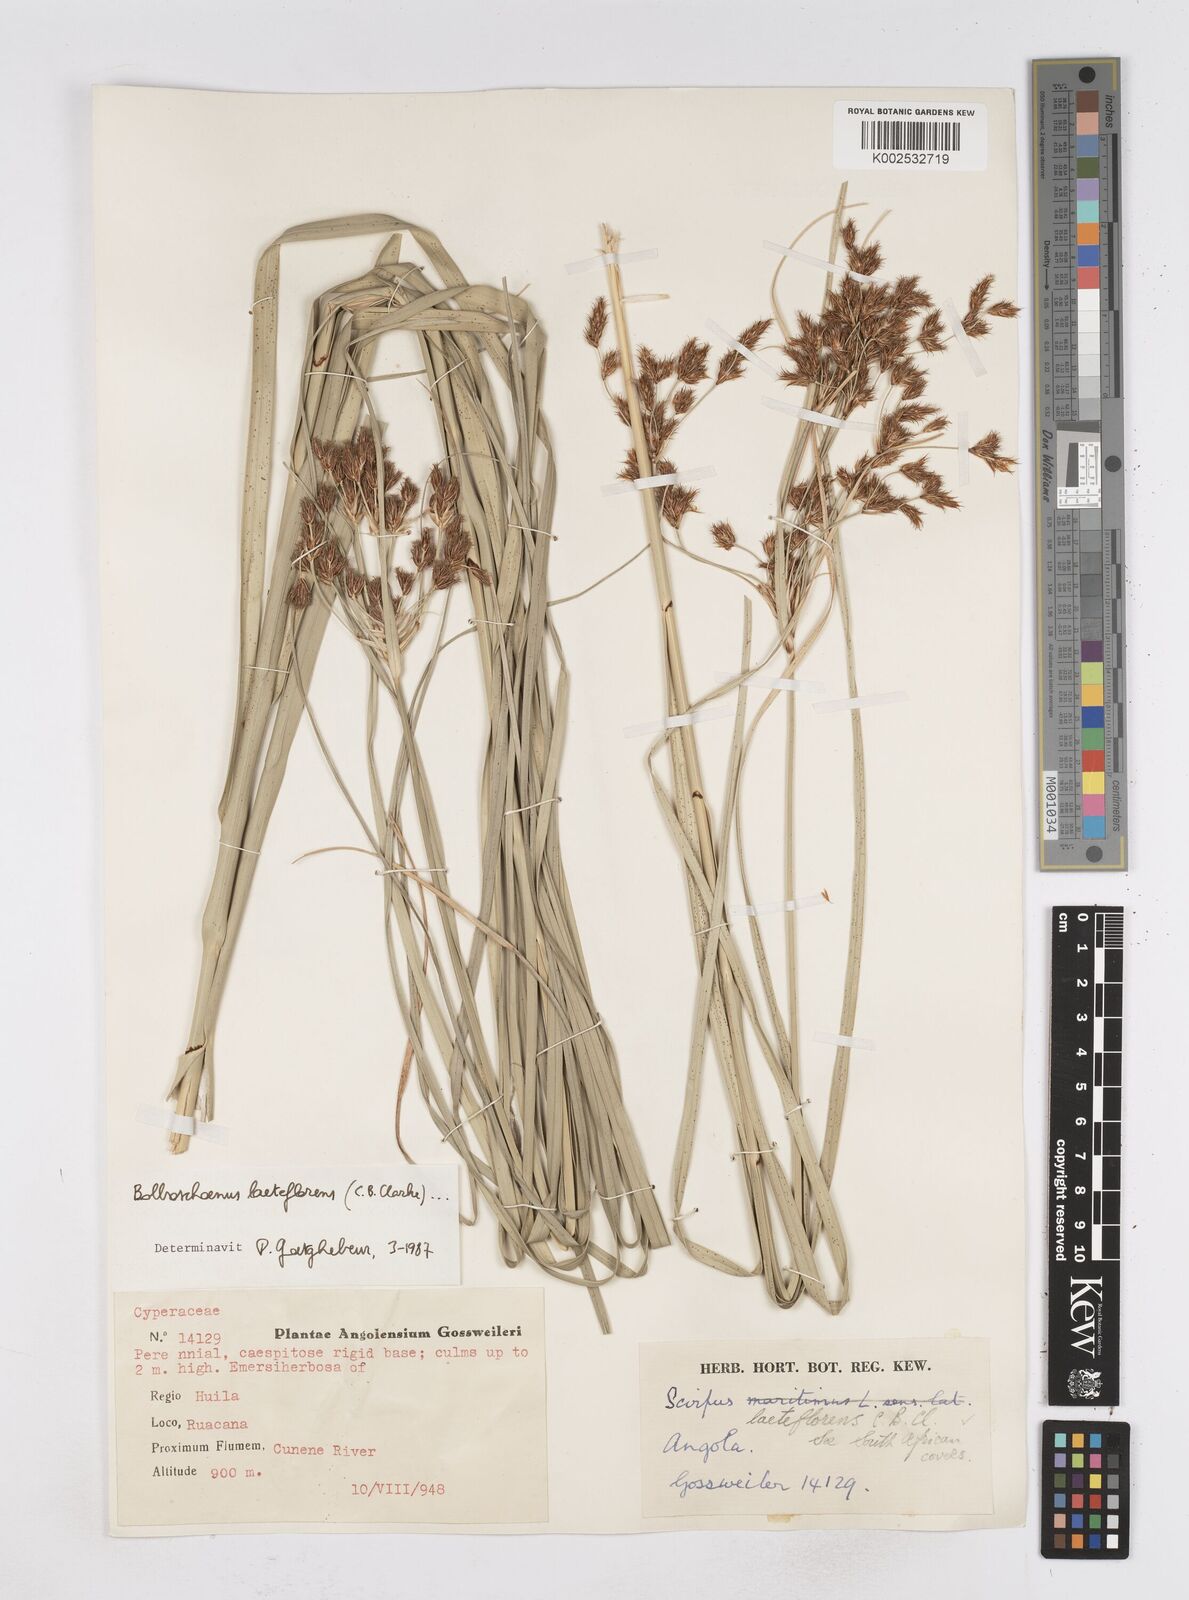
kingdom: Plantae
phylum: Tracheophyta
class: Liliopsida
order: Poales
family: Cyperaceae
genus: Bolboschoenus
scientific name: Bolboschoenus nobilis
